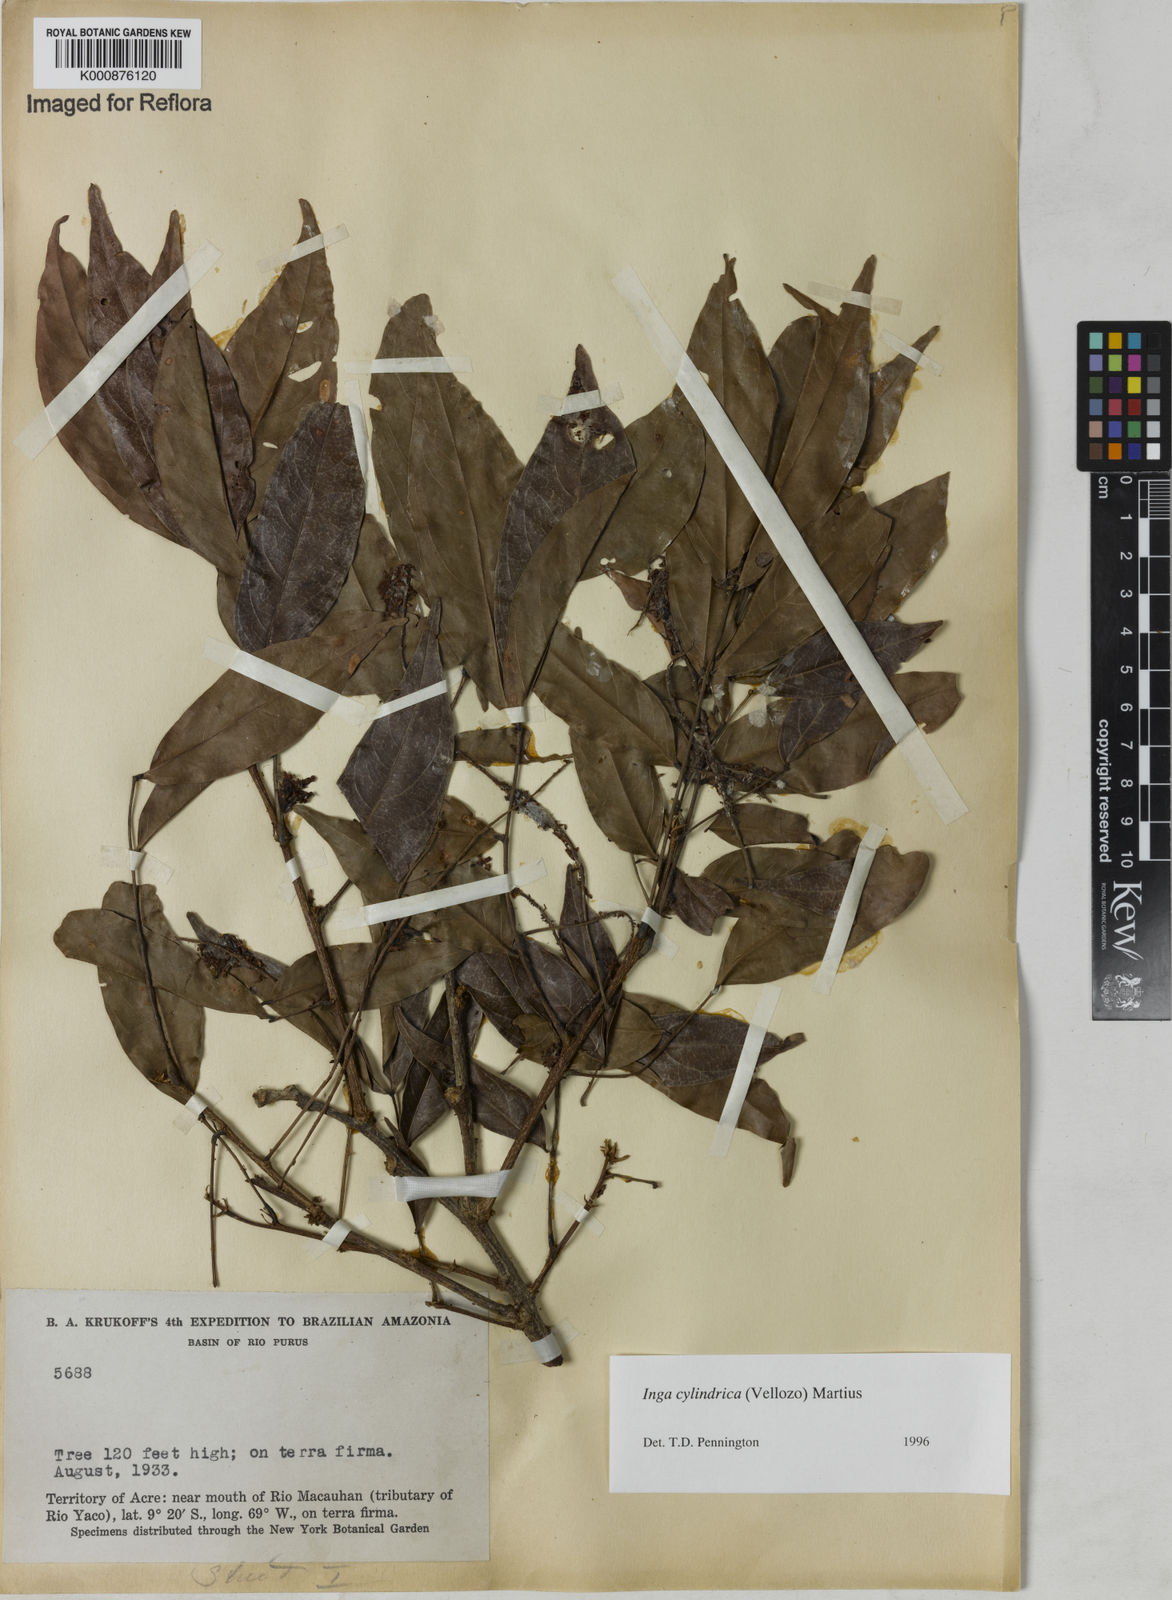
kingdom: Plantae
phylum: Tracheophyta
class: Magnoliopsida
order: Fabales
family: Fabaceae
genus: Inga
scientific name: Inga cylindrica
